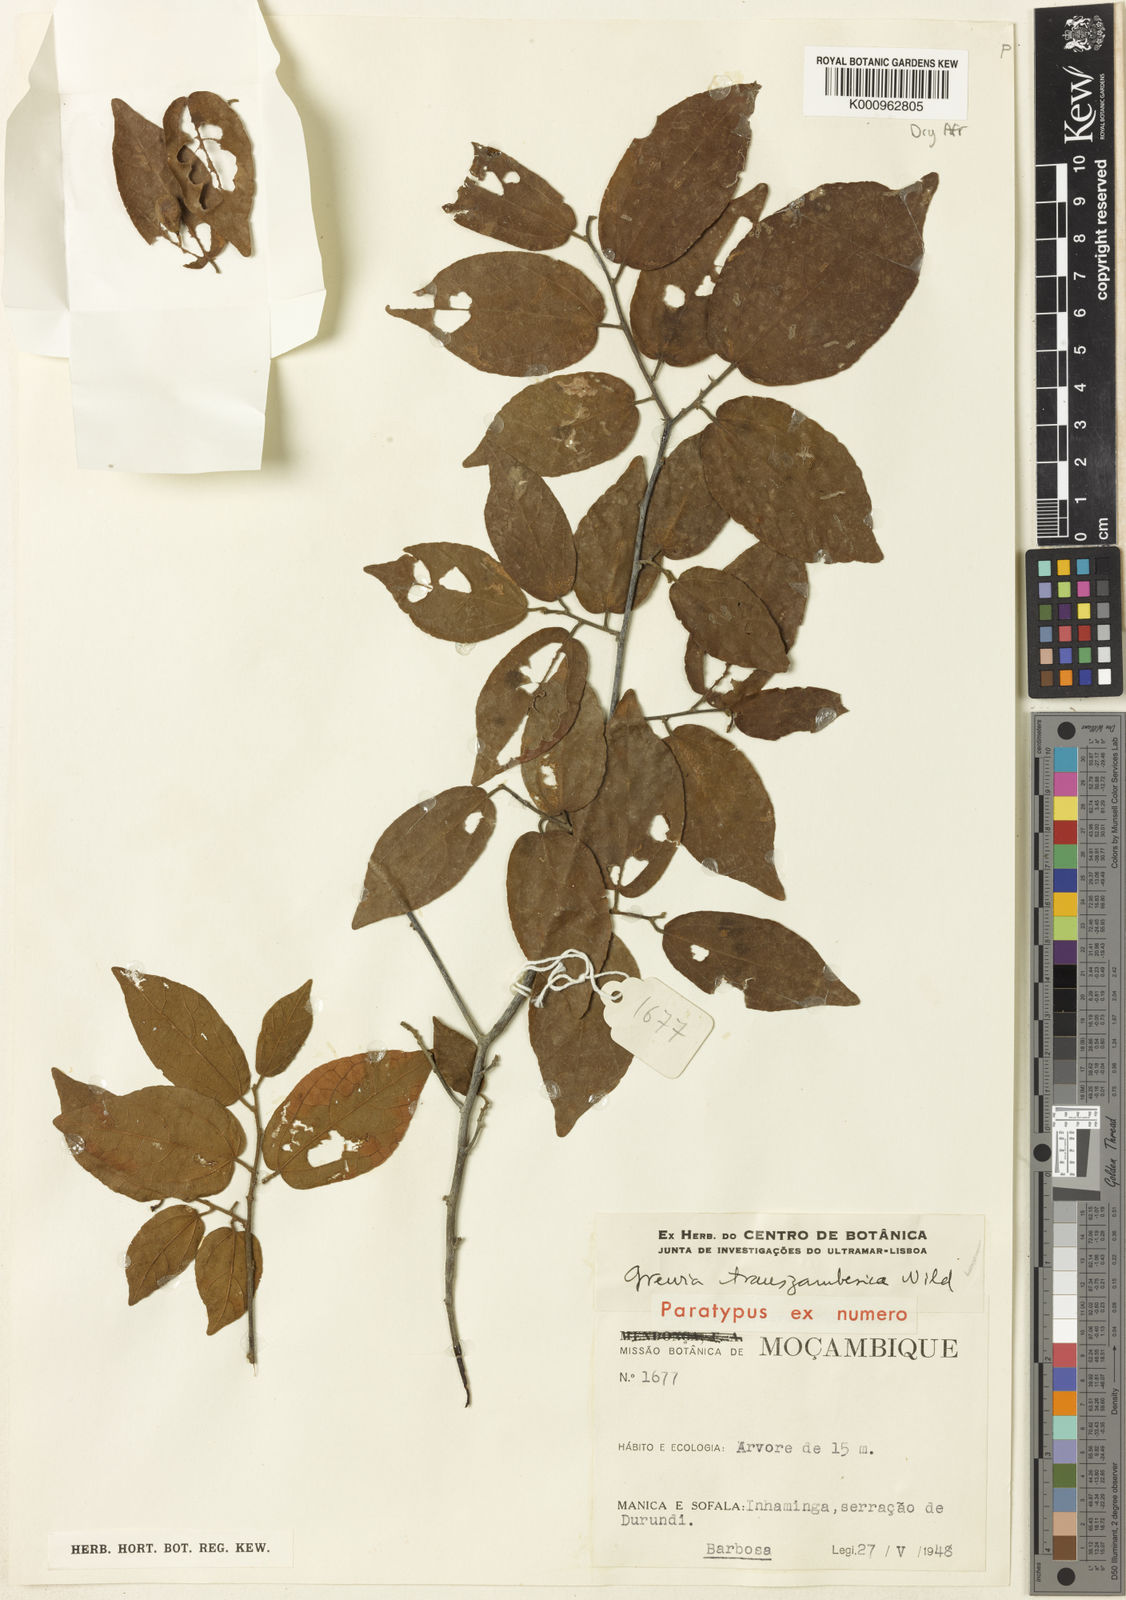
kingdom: Plantae
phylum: Tracheophyta
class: Magnoliopsida
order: Malvales
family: Malvaceae
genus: Microcos
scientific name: Microcos heterotricha
